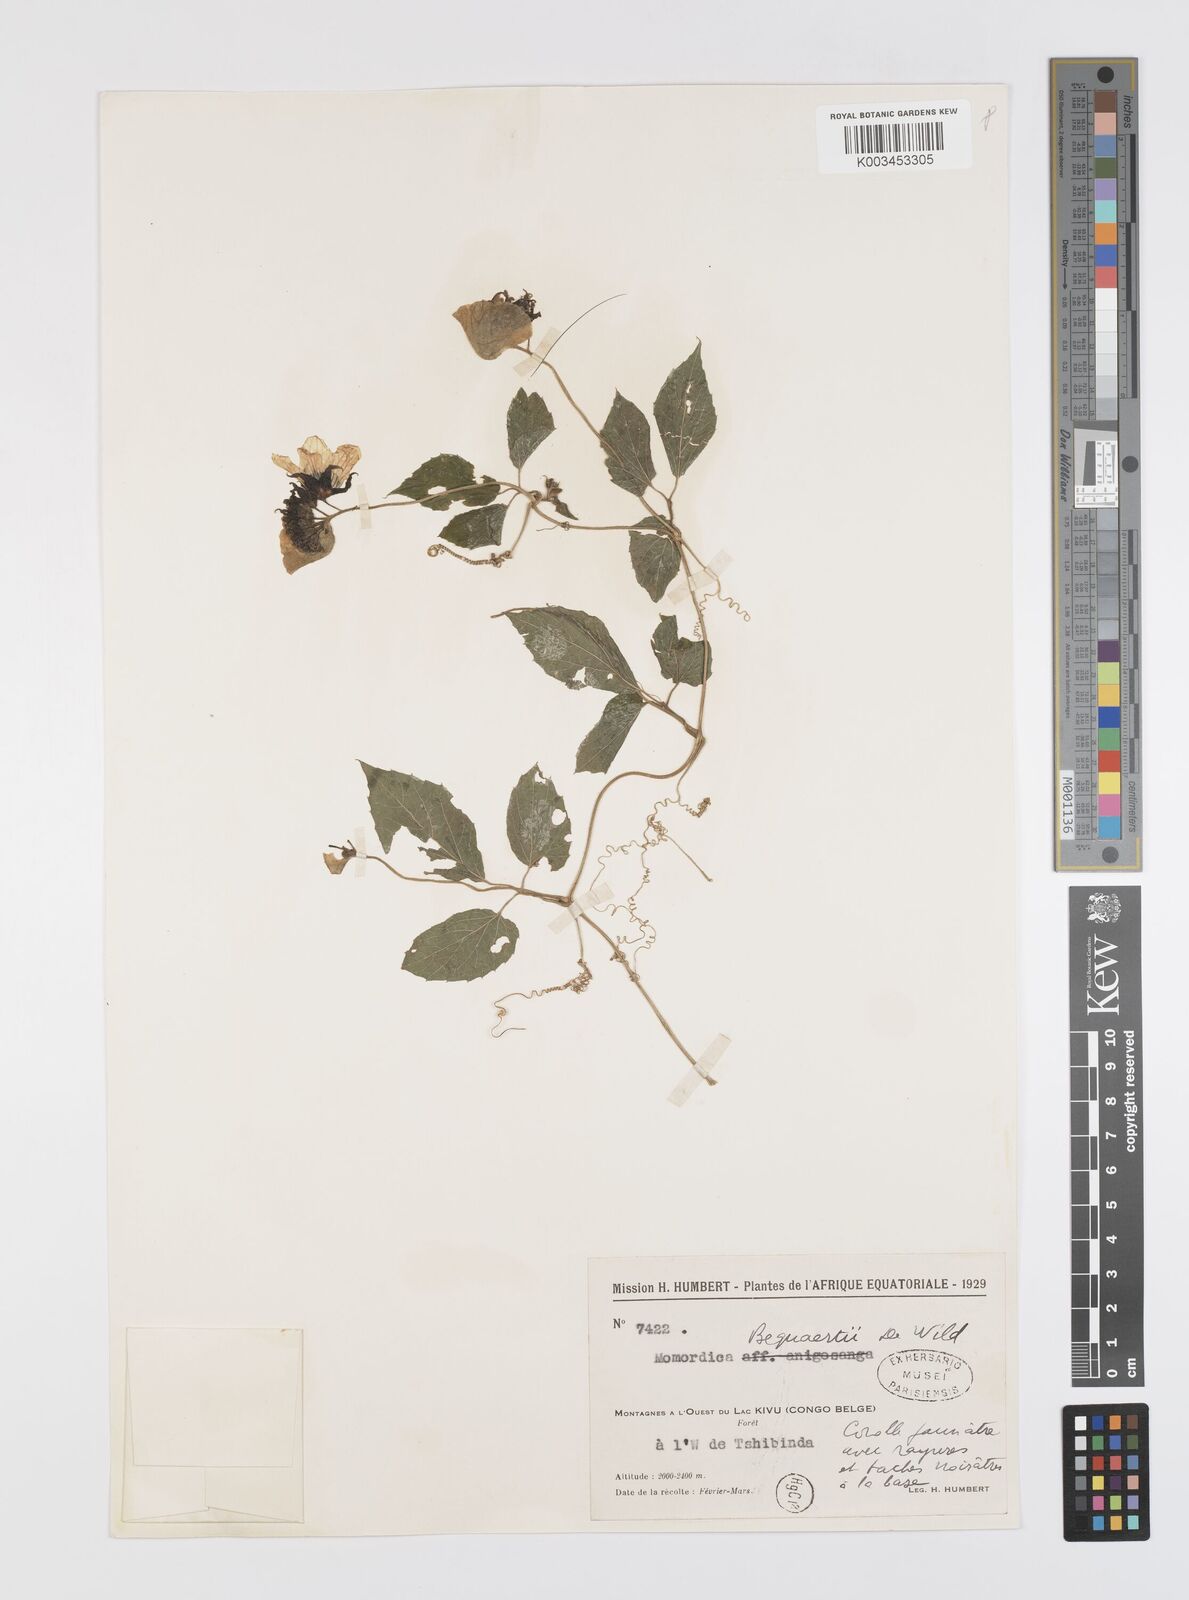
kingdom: Plantae
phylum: Tracheophyta
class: Magnoliopsida
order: Cucurbitales
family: Cucurbitaceae
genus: Momordica
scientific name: Momordica pterocarpa
